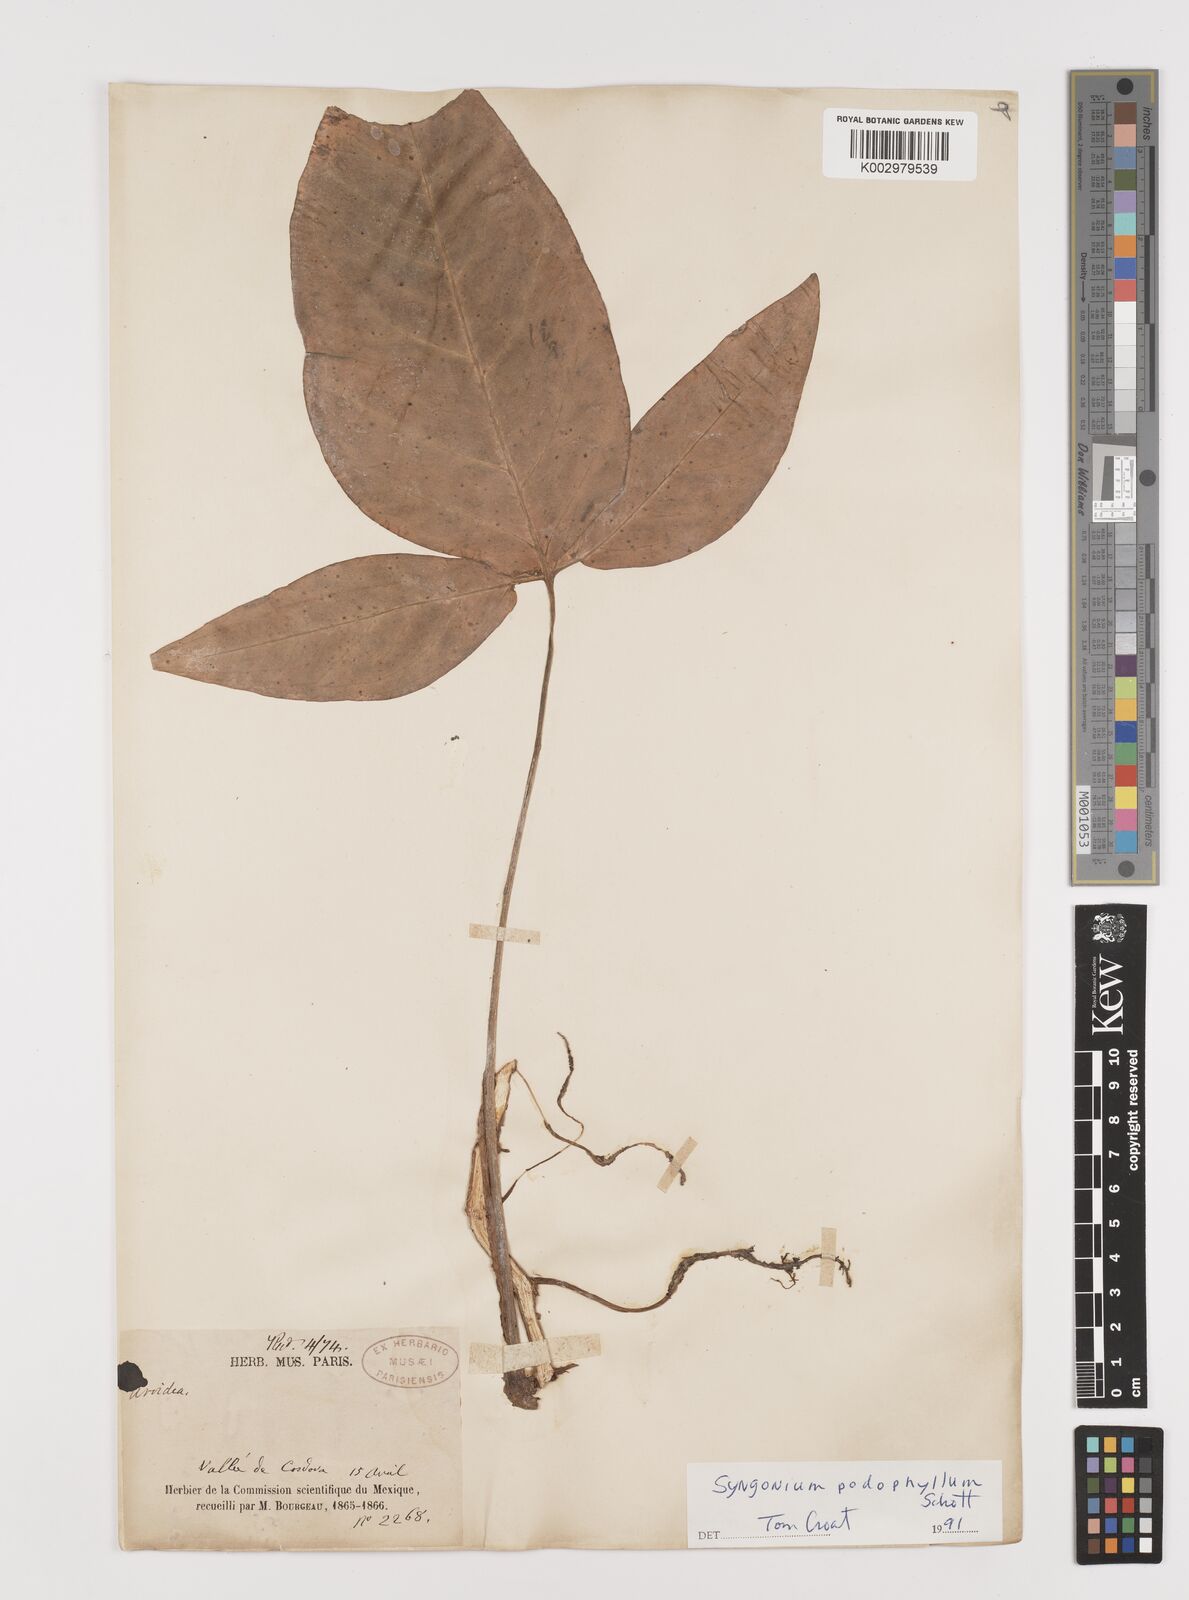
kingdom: Plantae
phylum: Tracheophyta
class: Liliopsida
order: Alismatales
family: Araceae
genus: Syngonium
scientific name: Syngonium podophyllum
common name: American evergreen
